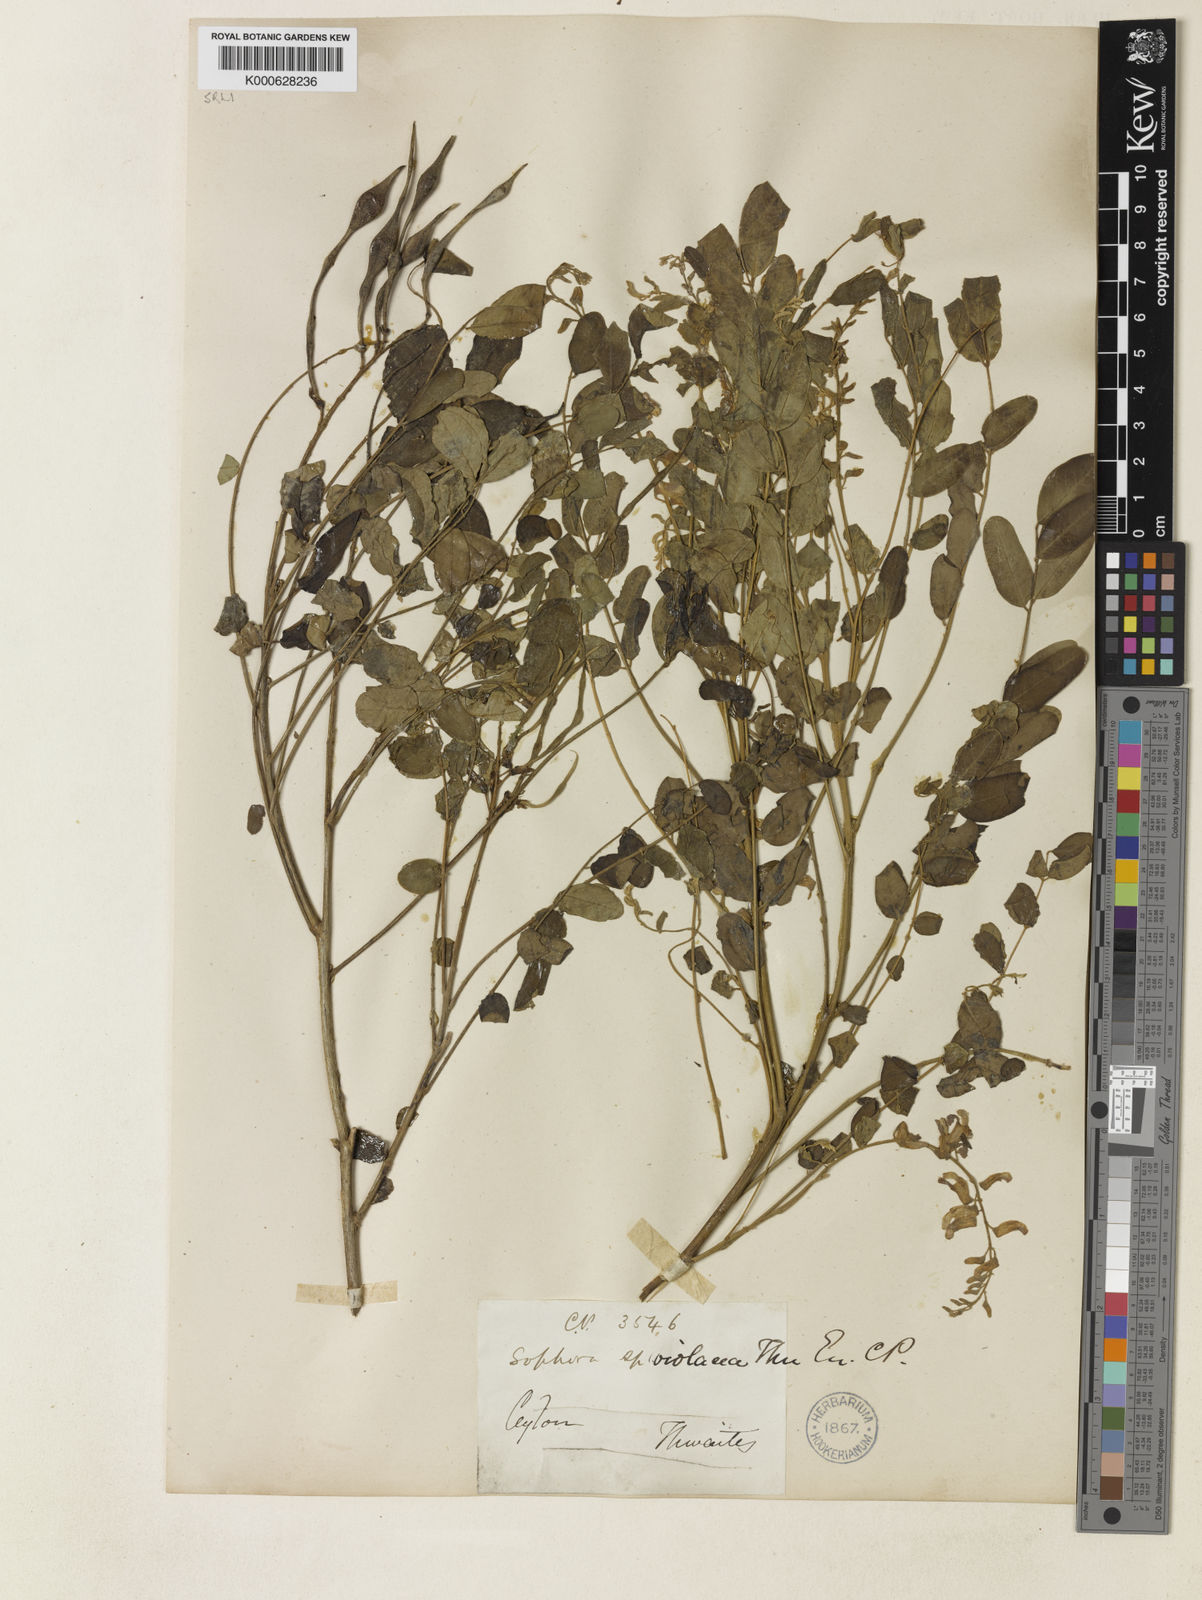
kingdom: Plantae
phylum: Tracheophyta
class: Magnoliopsida
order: Fabales
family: Fabaceae
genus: Sophora
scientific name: Sophora violacea
